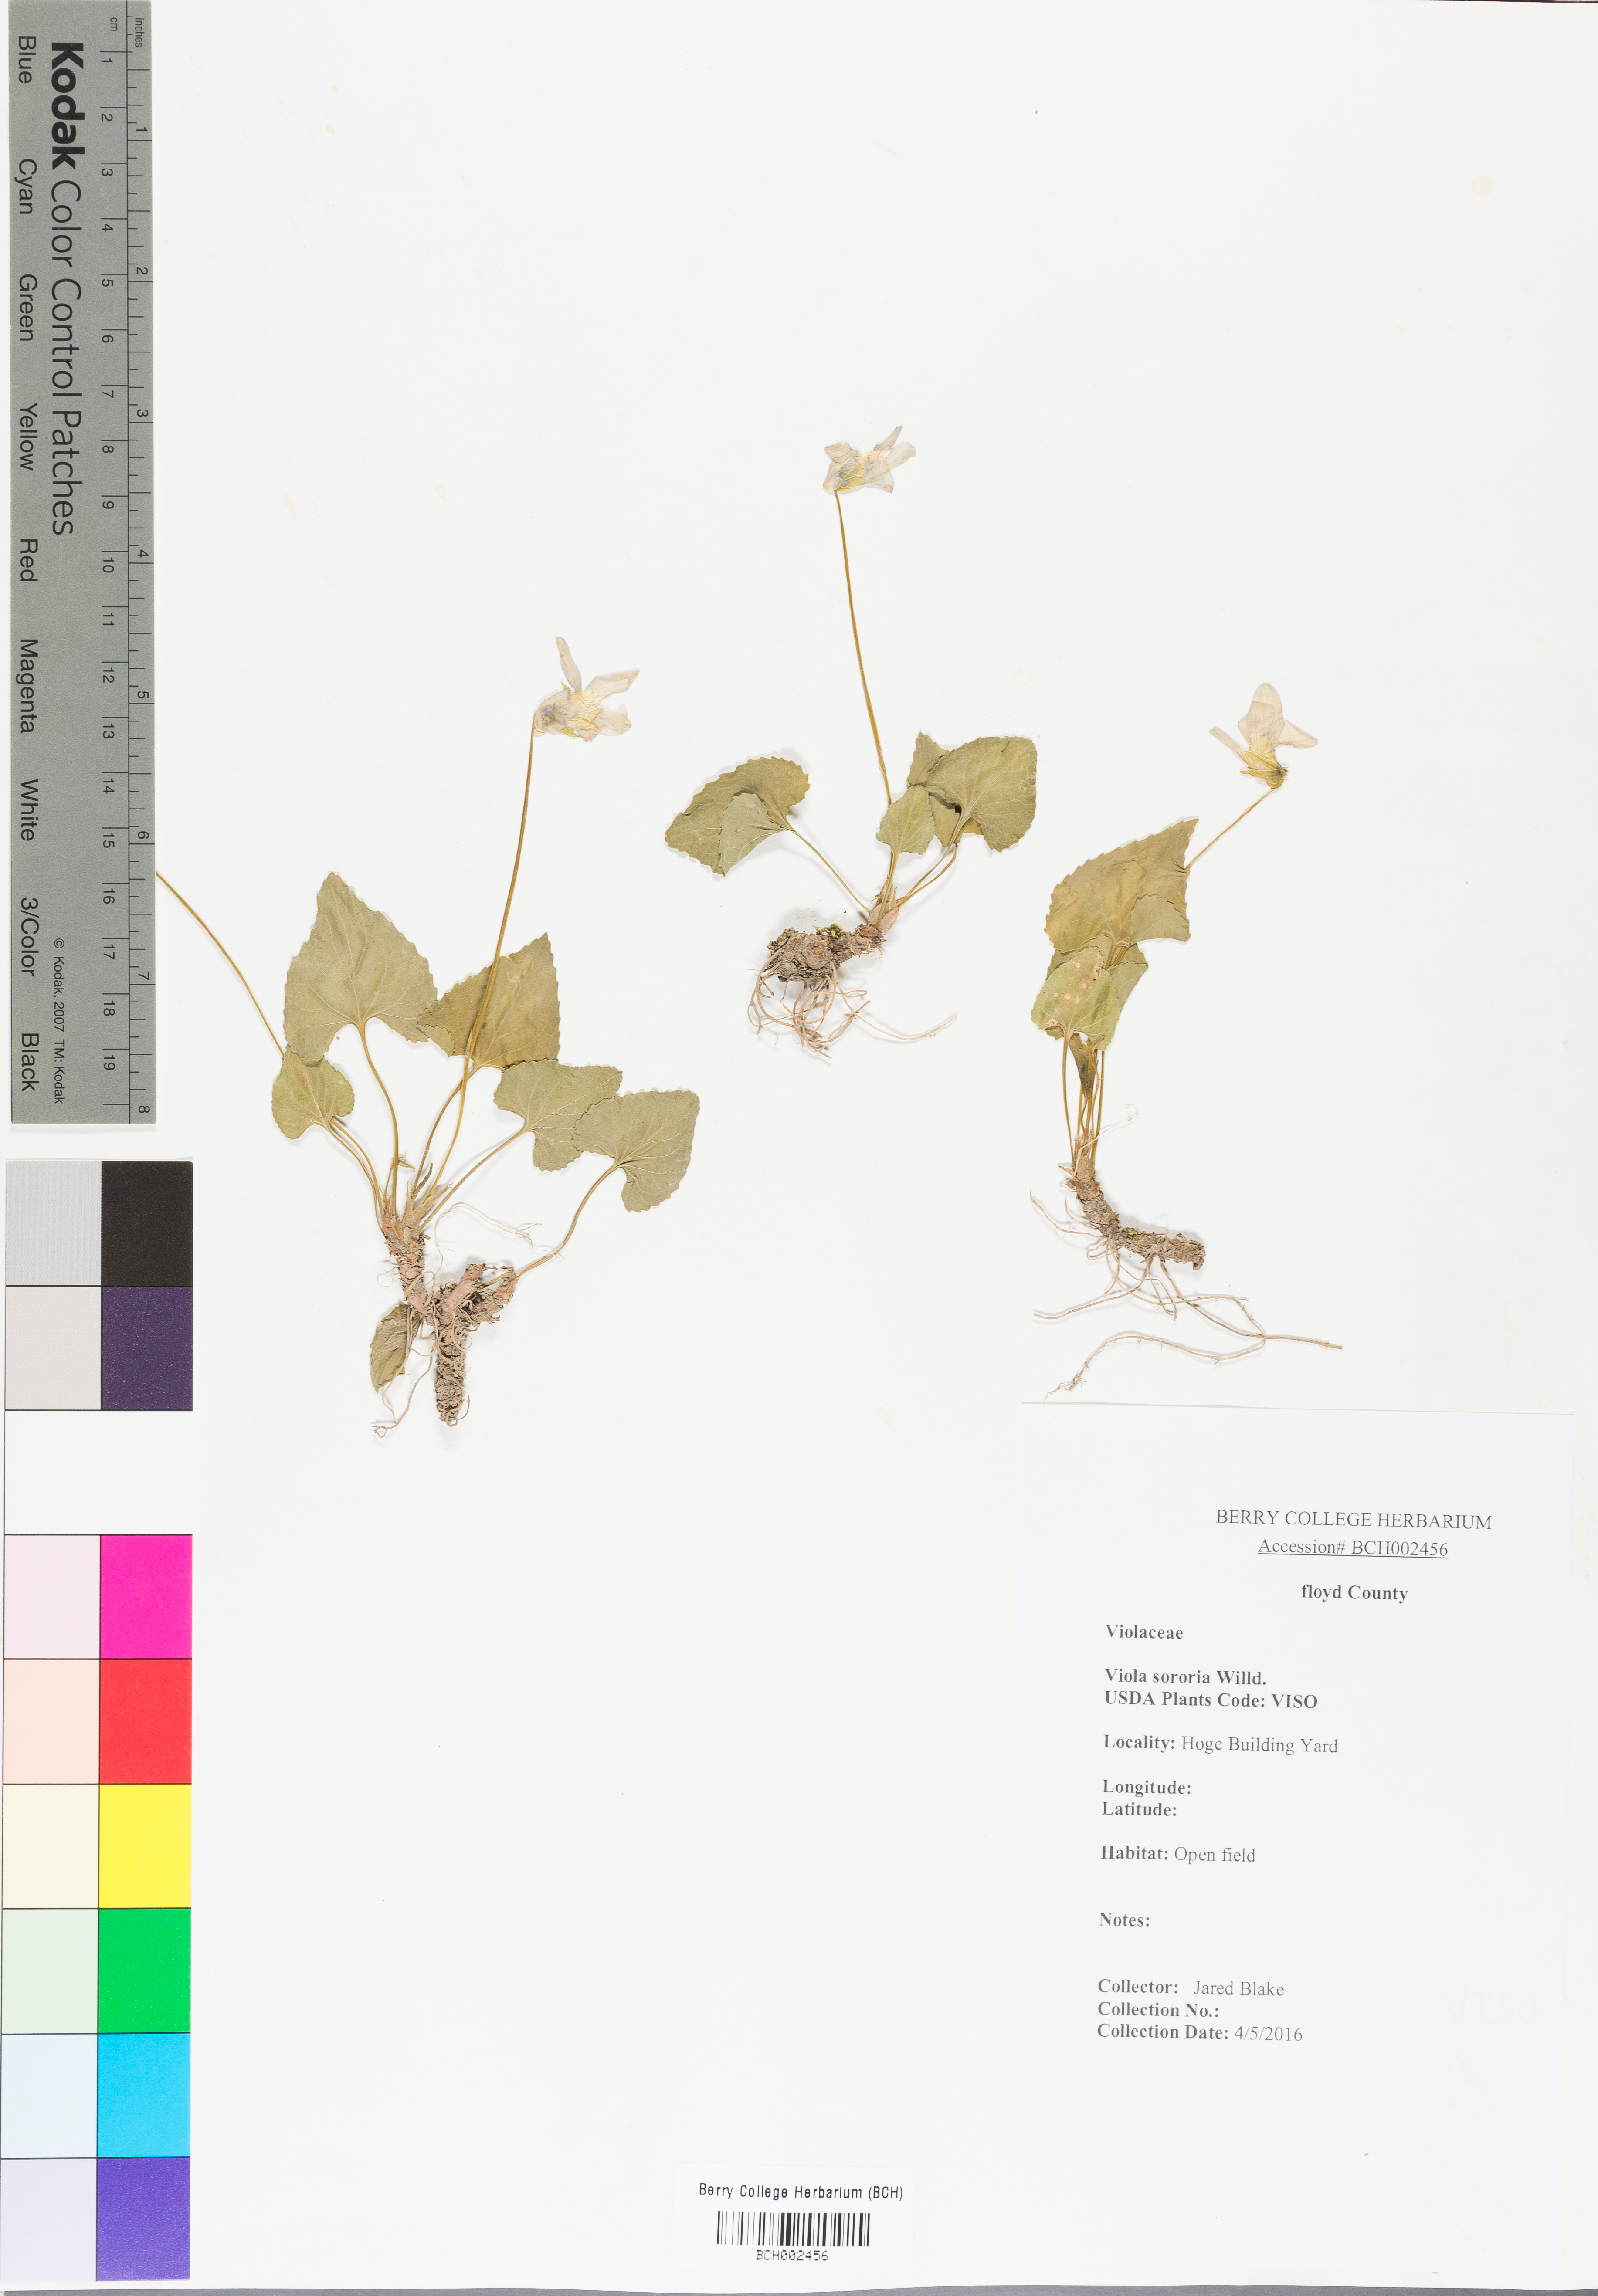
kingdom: Plantae
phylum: Tracheophyta
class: Magnoliopsida
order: Malpighiales
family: Violaceae
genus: Viola
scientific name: Viola sororia
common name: Dooryard violet
